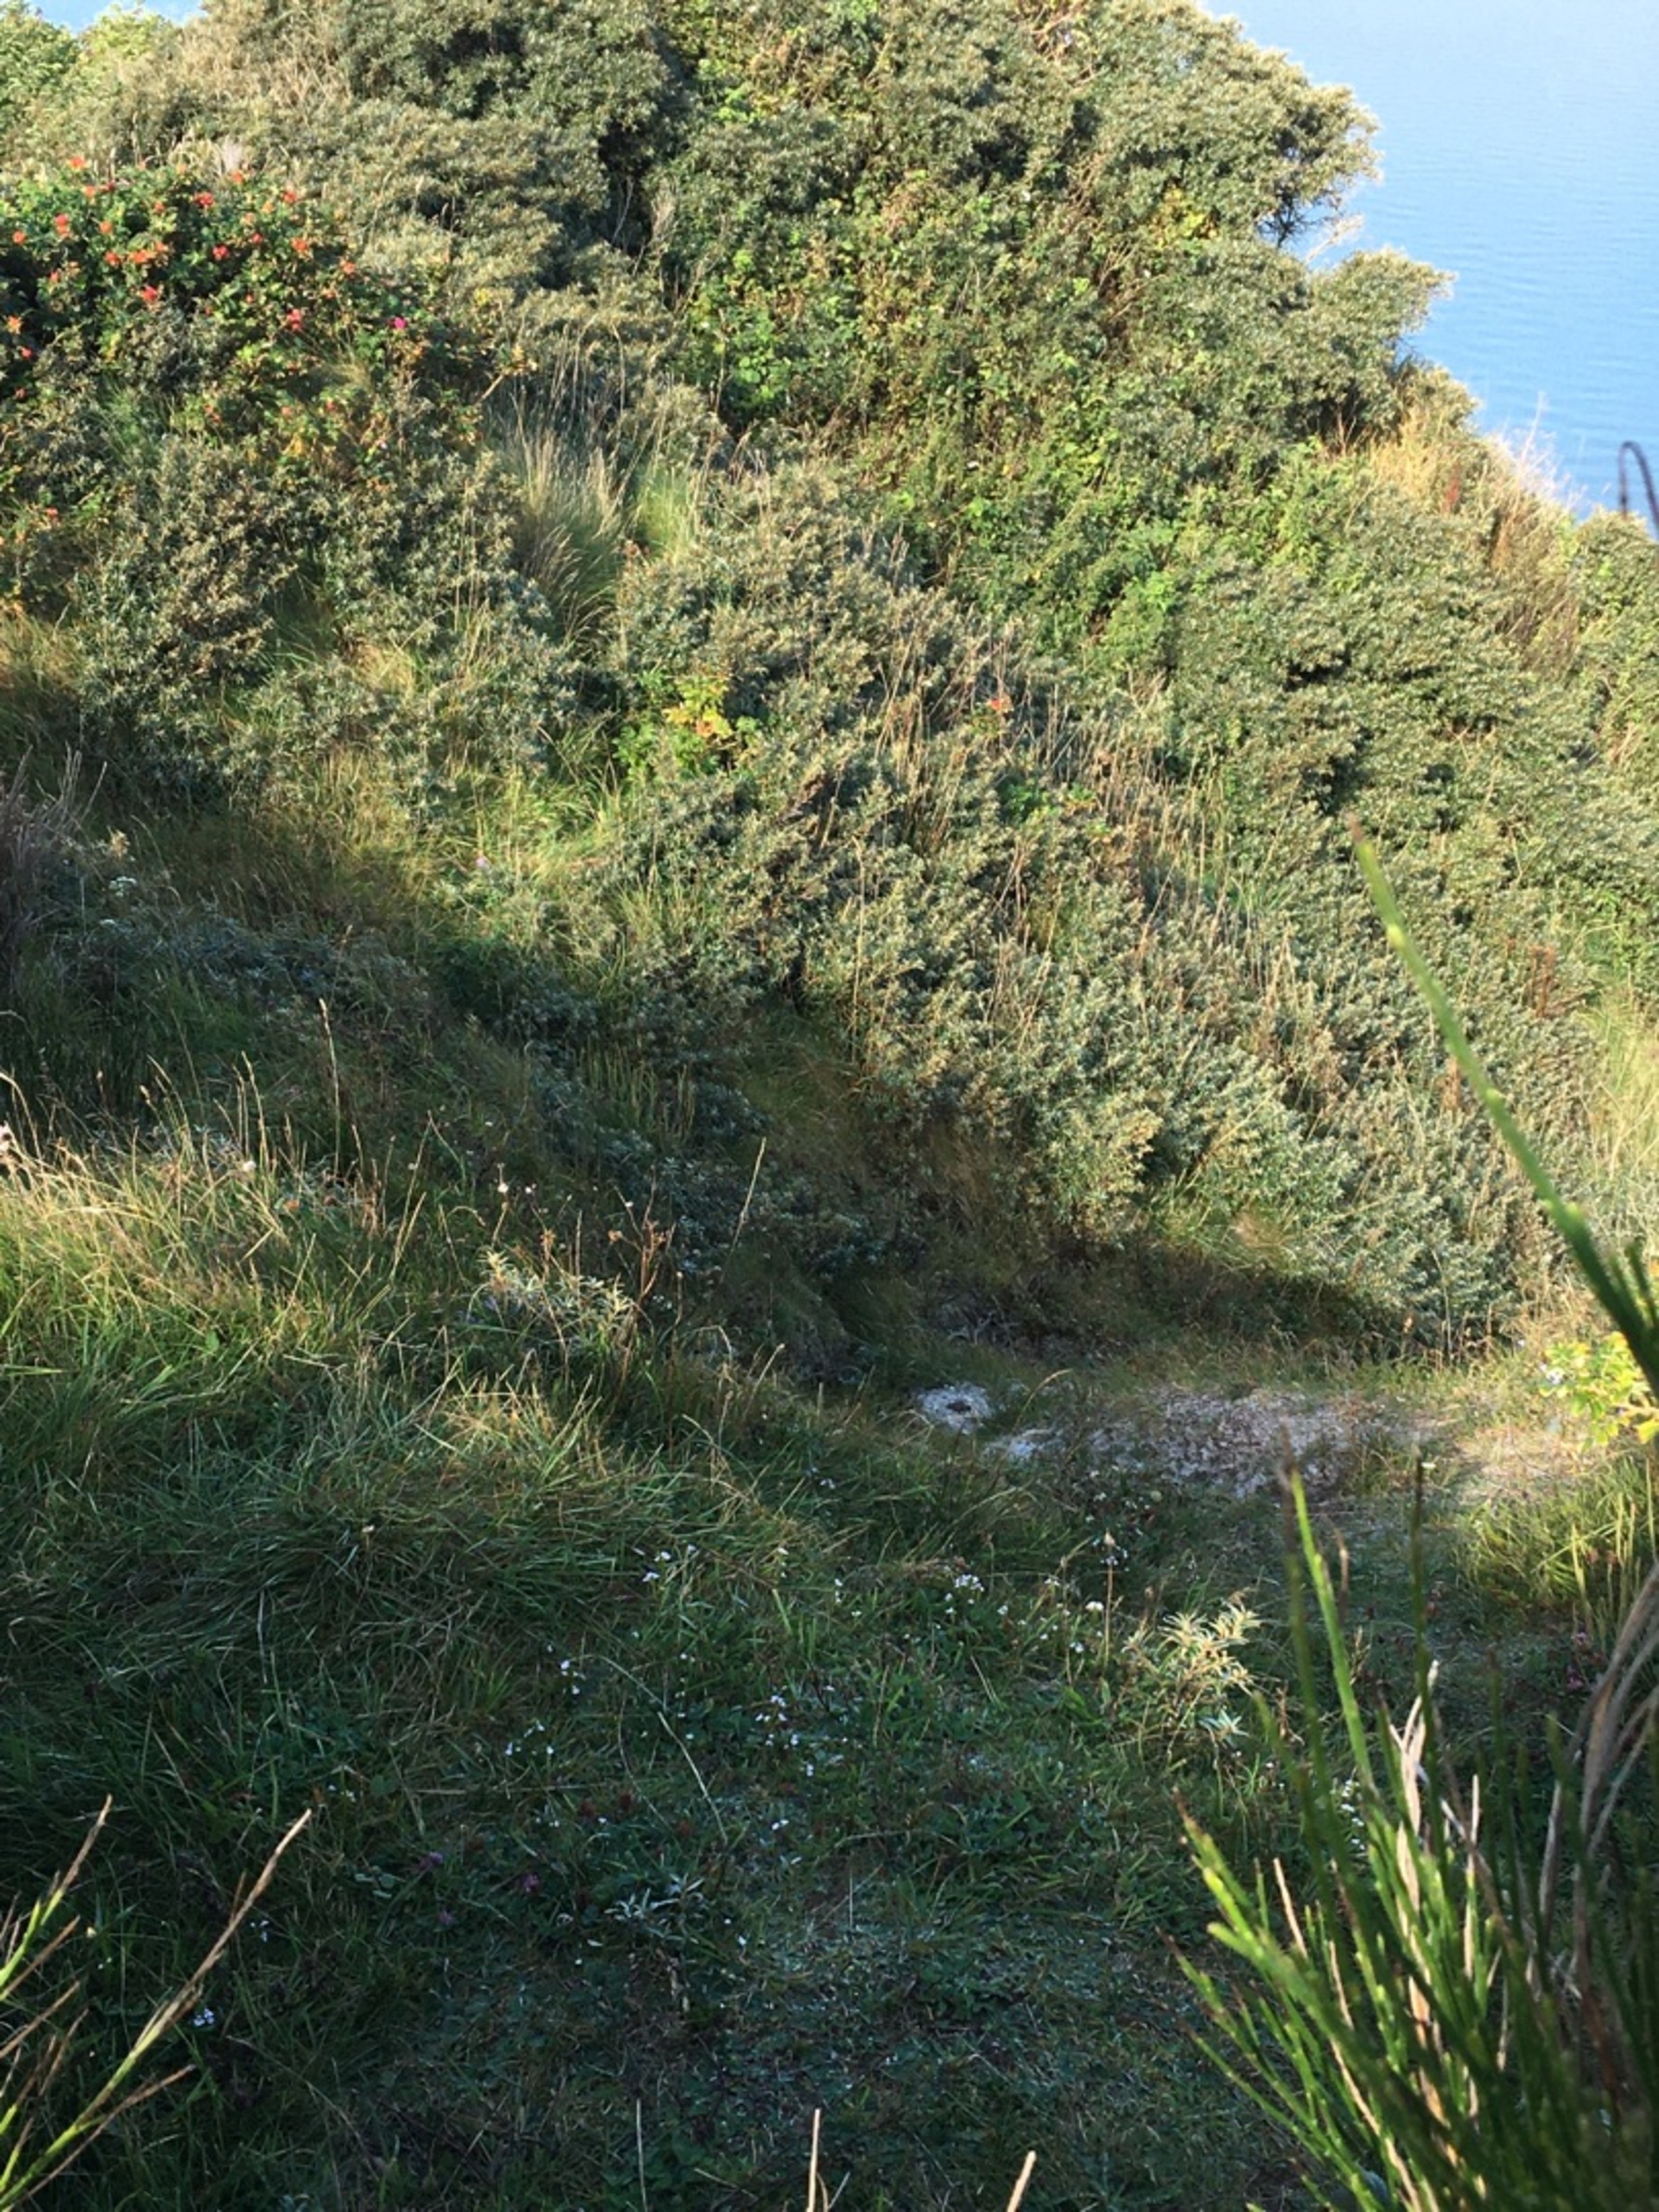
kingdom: Plantae
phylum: Tracheophyta
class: Magnoliopsida
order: Rosales
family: Elaeagnaceae
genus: Hippophae
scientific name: Hippophae rhamnoides
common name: Havtorn
